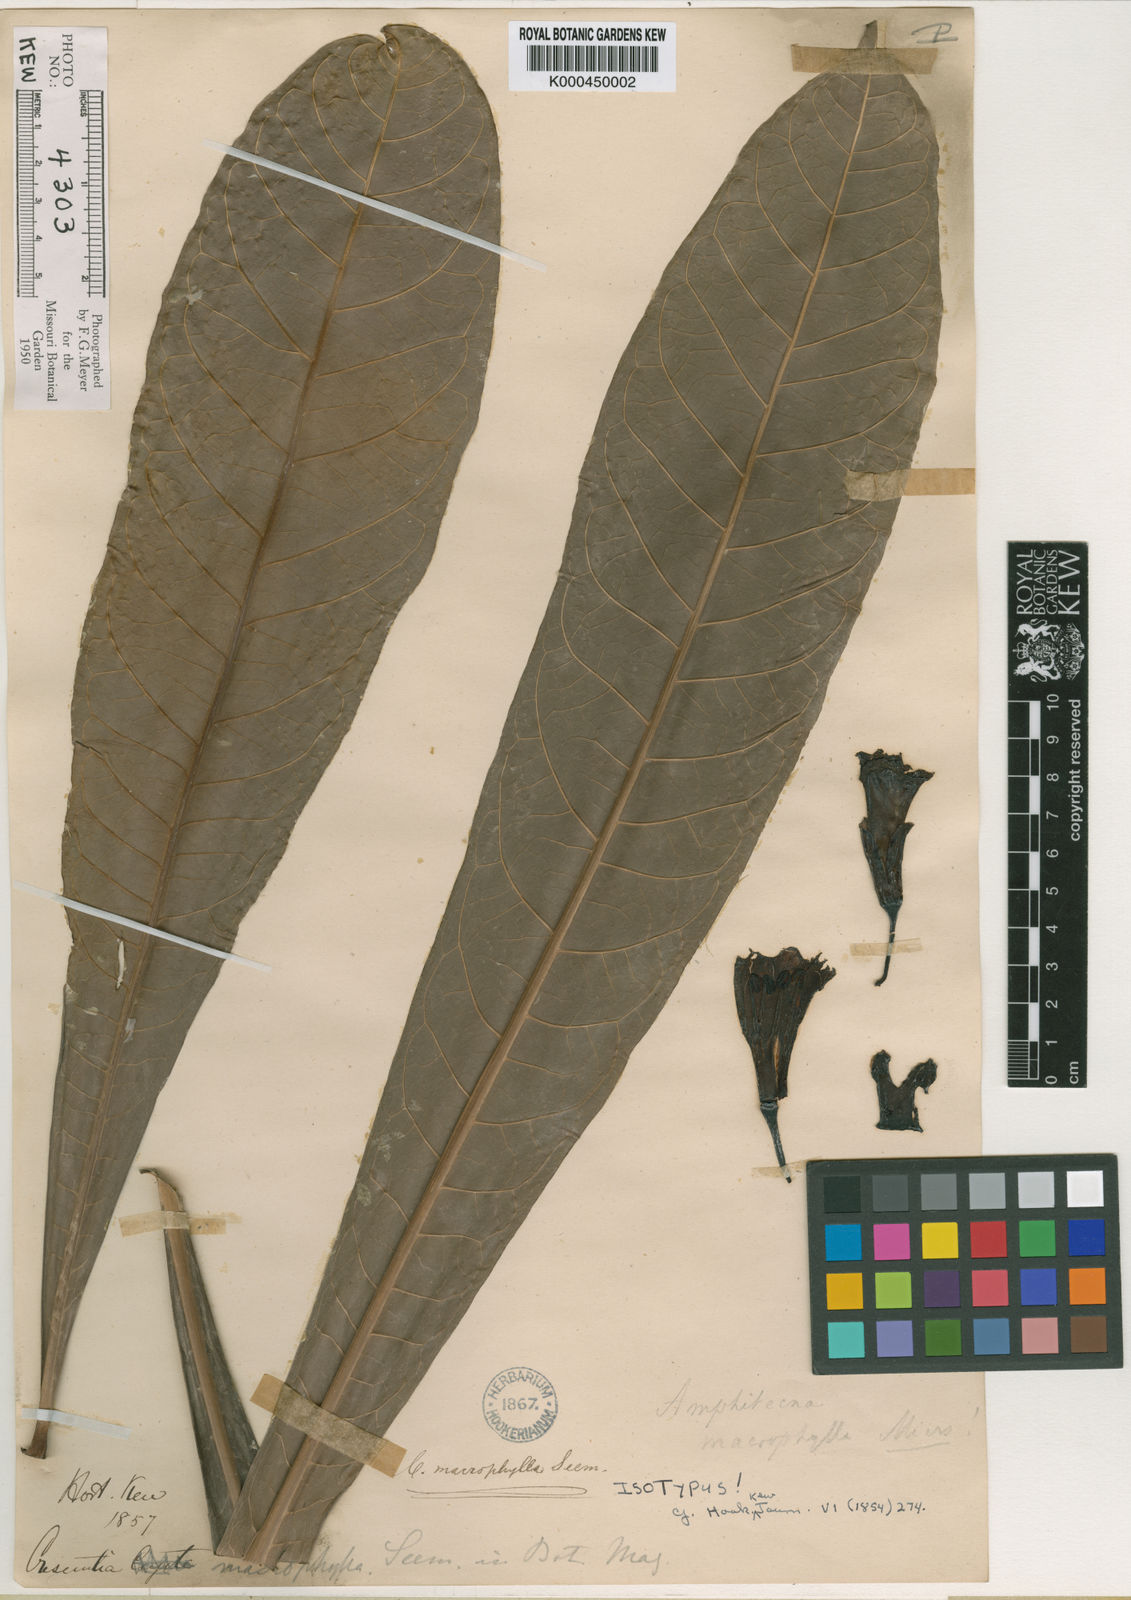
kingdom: Plantae
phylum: Tracheophyta
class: Magnoliopsida
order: Lamiales
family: Bignoniaceae
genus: Amphitecna
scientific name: Amphitecna macrophylla
